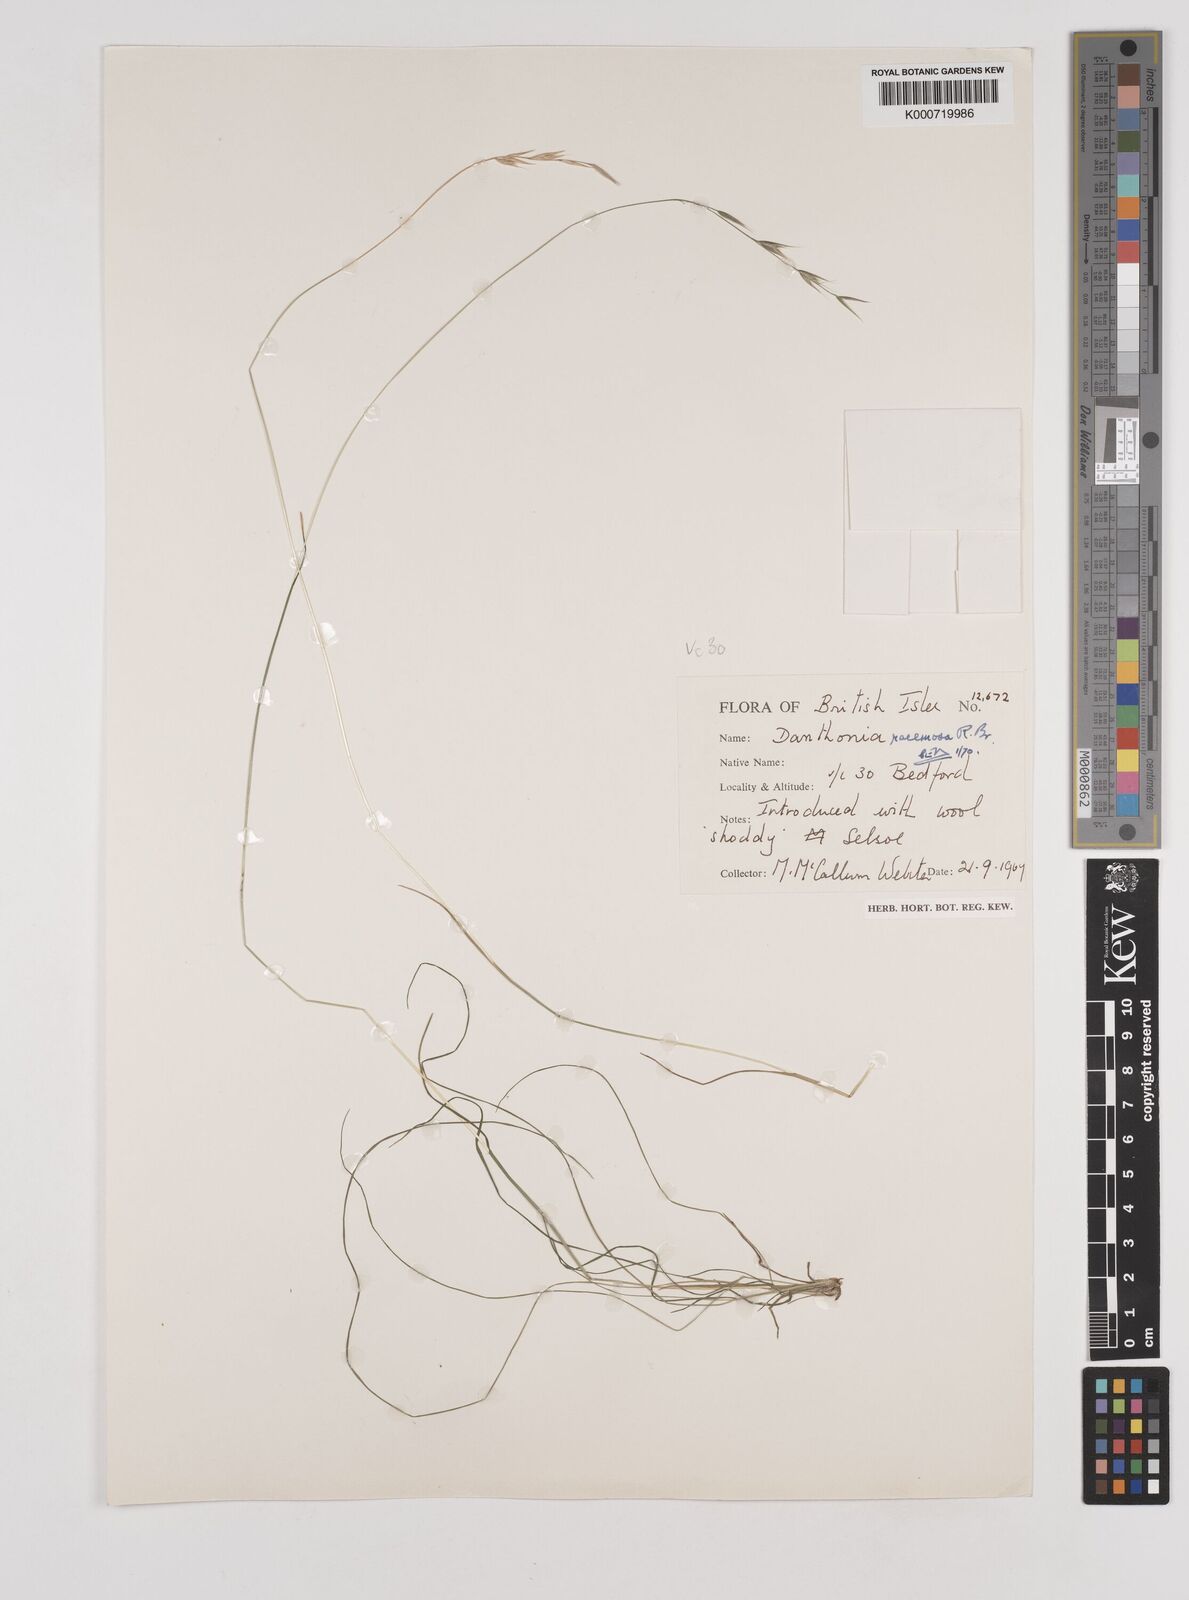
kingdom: Plantae
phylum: Tracheophyta
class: Liliopsida
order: Poales
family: Poaceae
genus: Rytidosperma
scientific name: Rytidosperma racemosum
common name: Wallaby-grass
